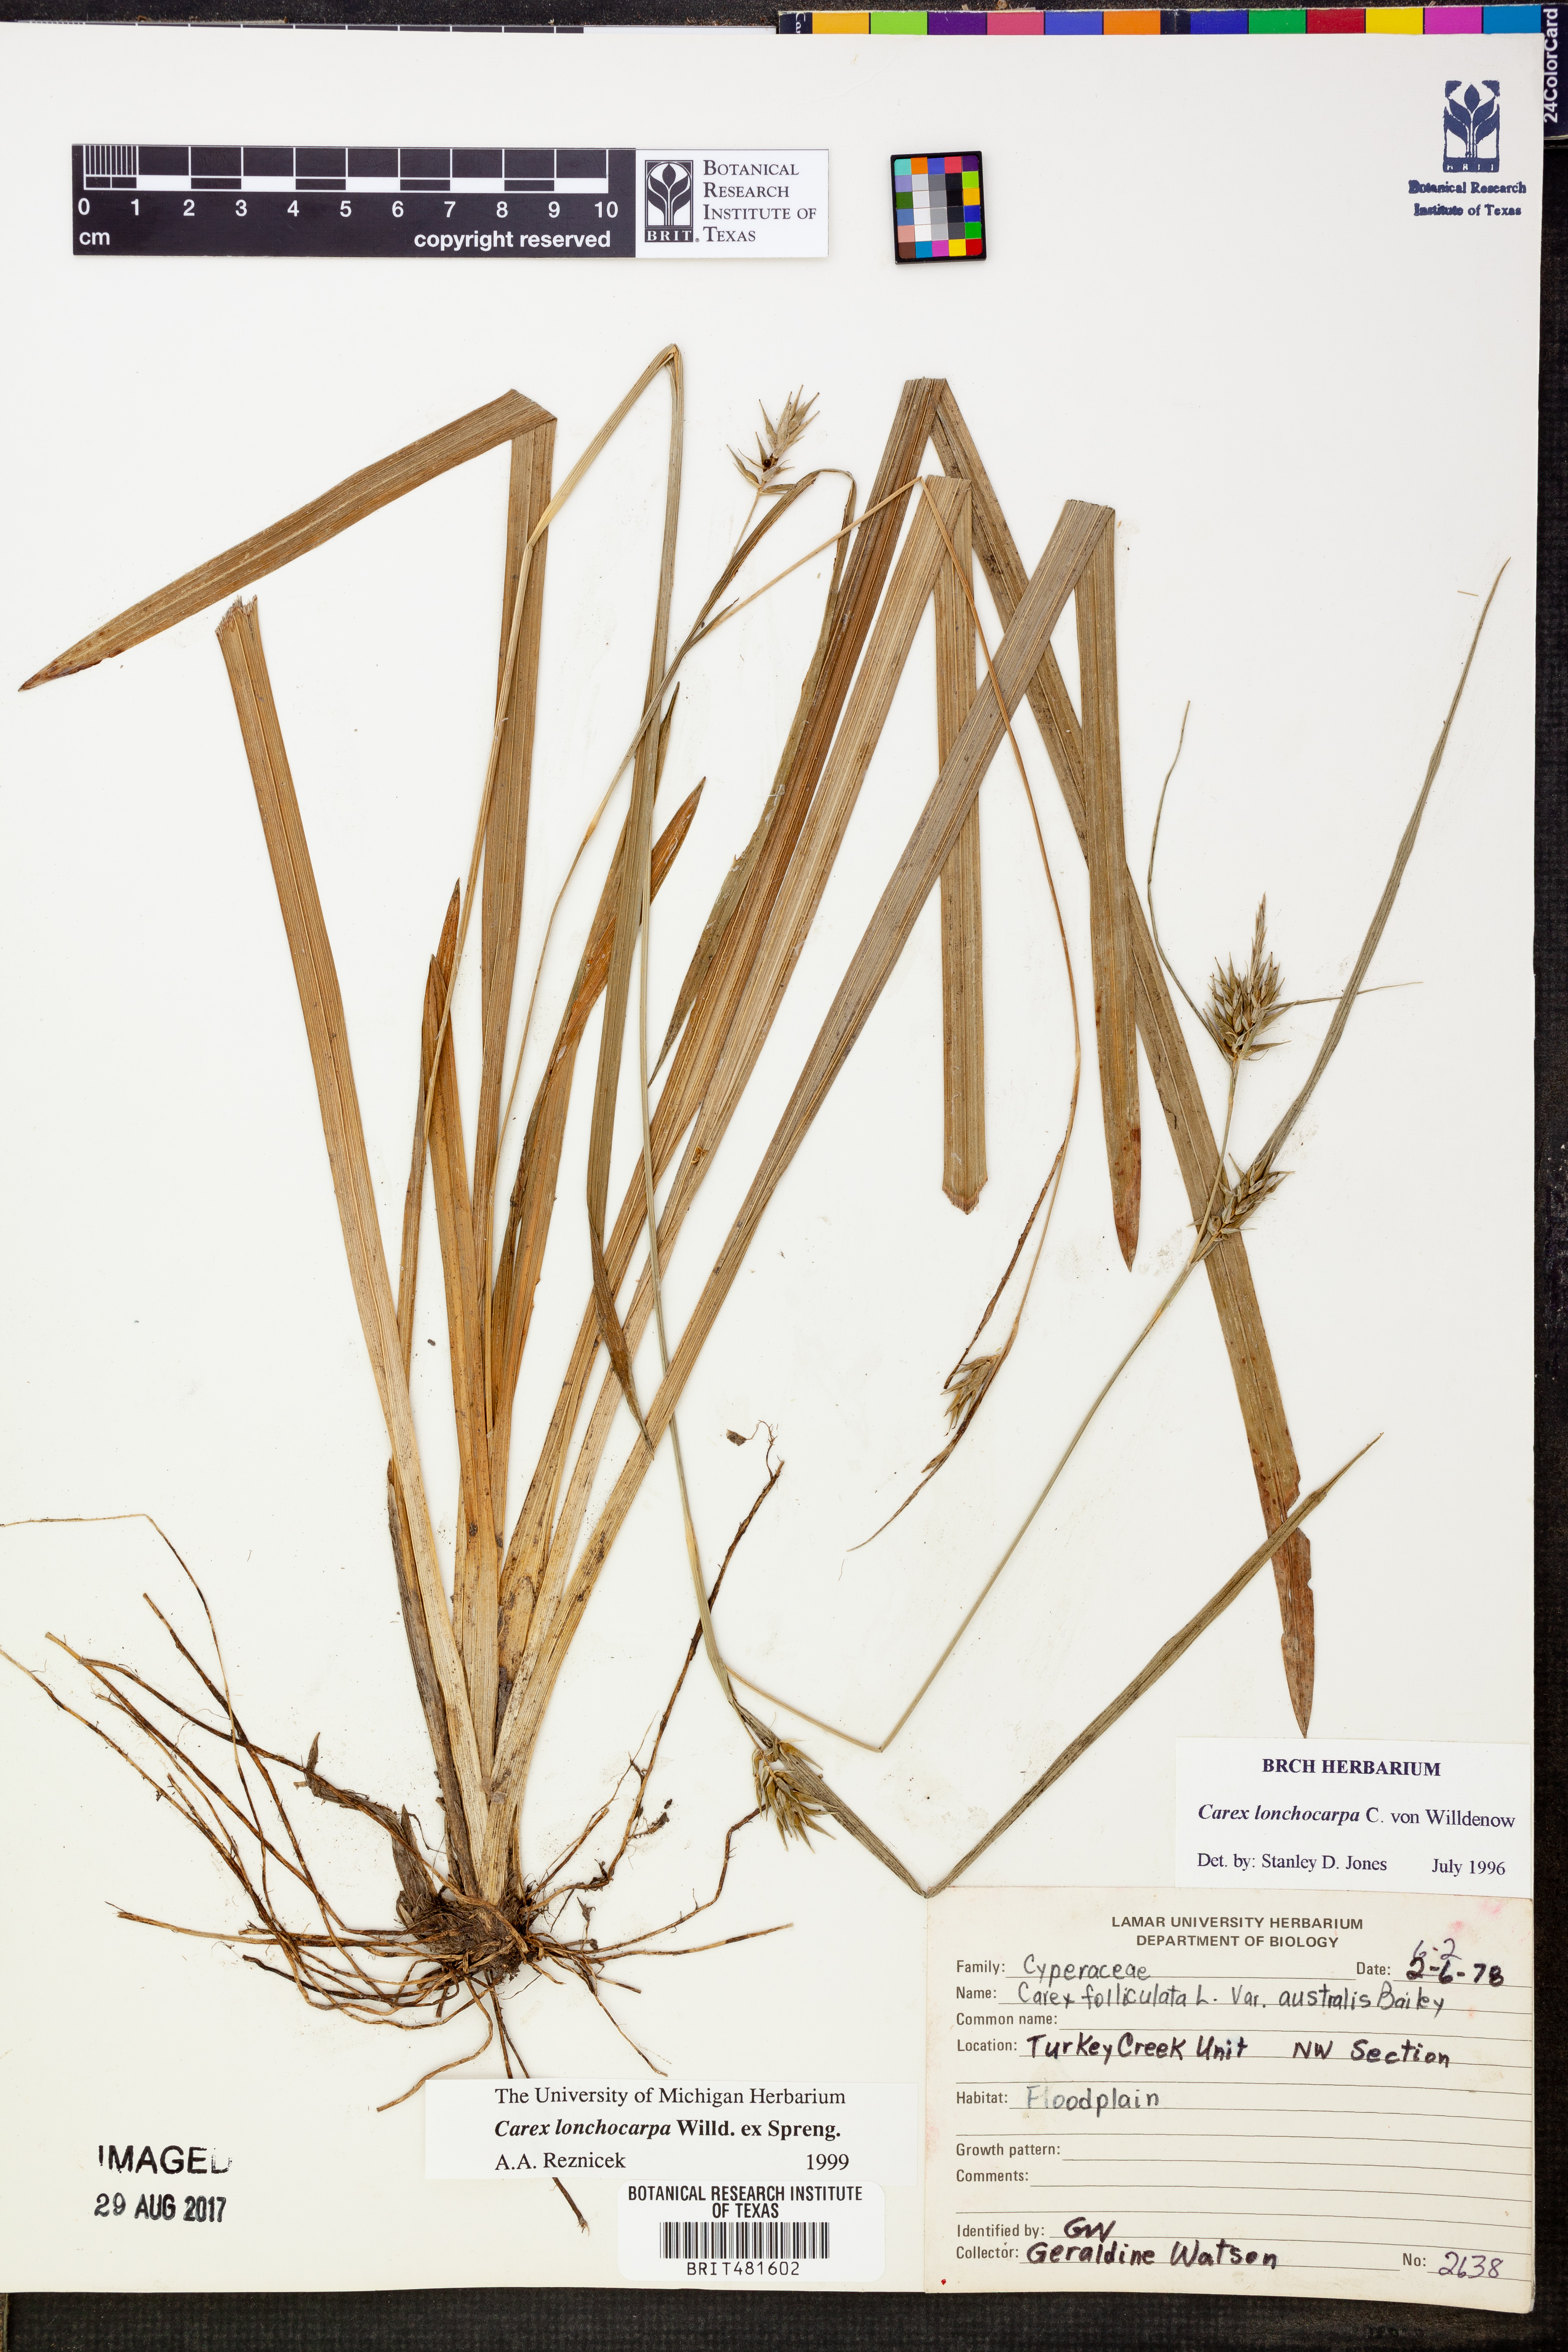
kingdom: Plantae
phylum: Tracheophyta
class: Liliopsida
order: Poales
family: Cyperaceae
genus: Carex
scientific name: Carex lonchocarpa
